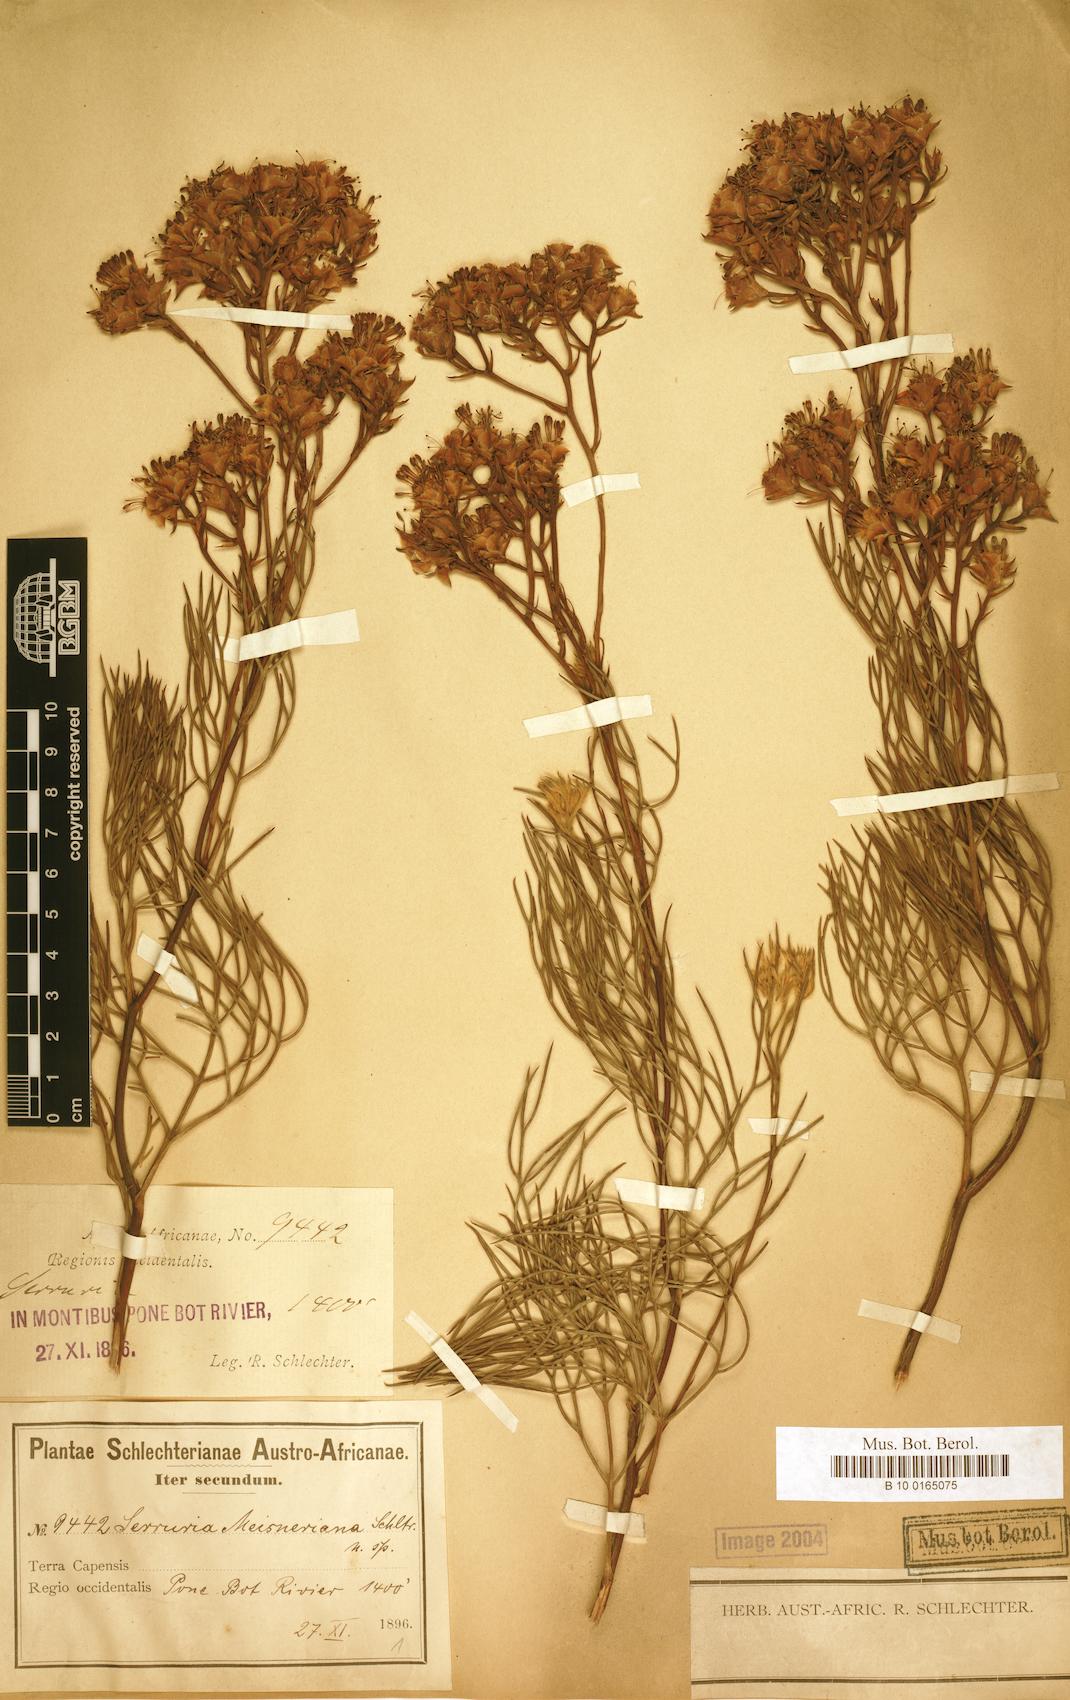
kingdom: Plantae
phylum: Tracheophyta
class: Magnoliopsida
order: Proteales
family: Proteaceae
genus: Serruria
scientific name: Serruria meisneriana
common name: Dainty spiderhead
